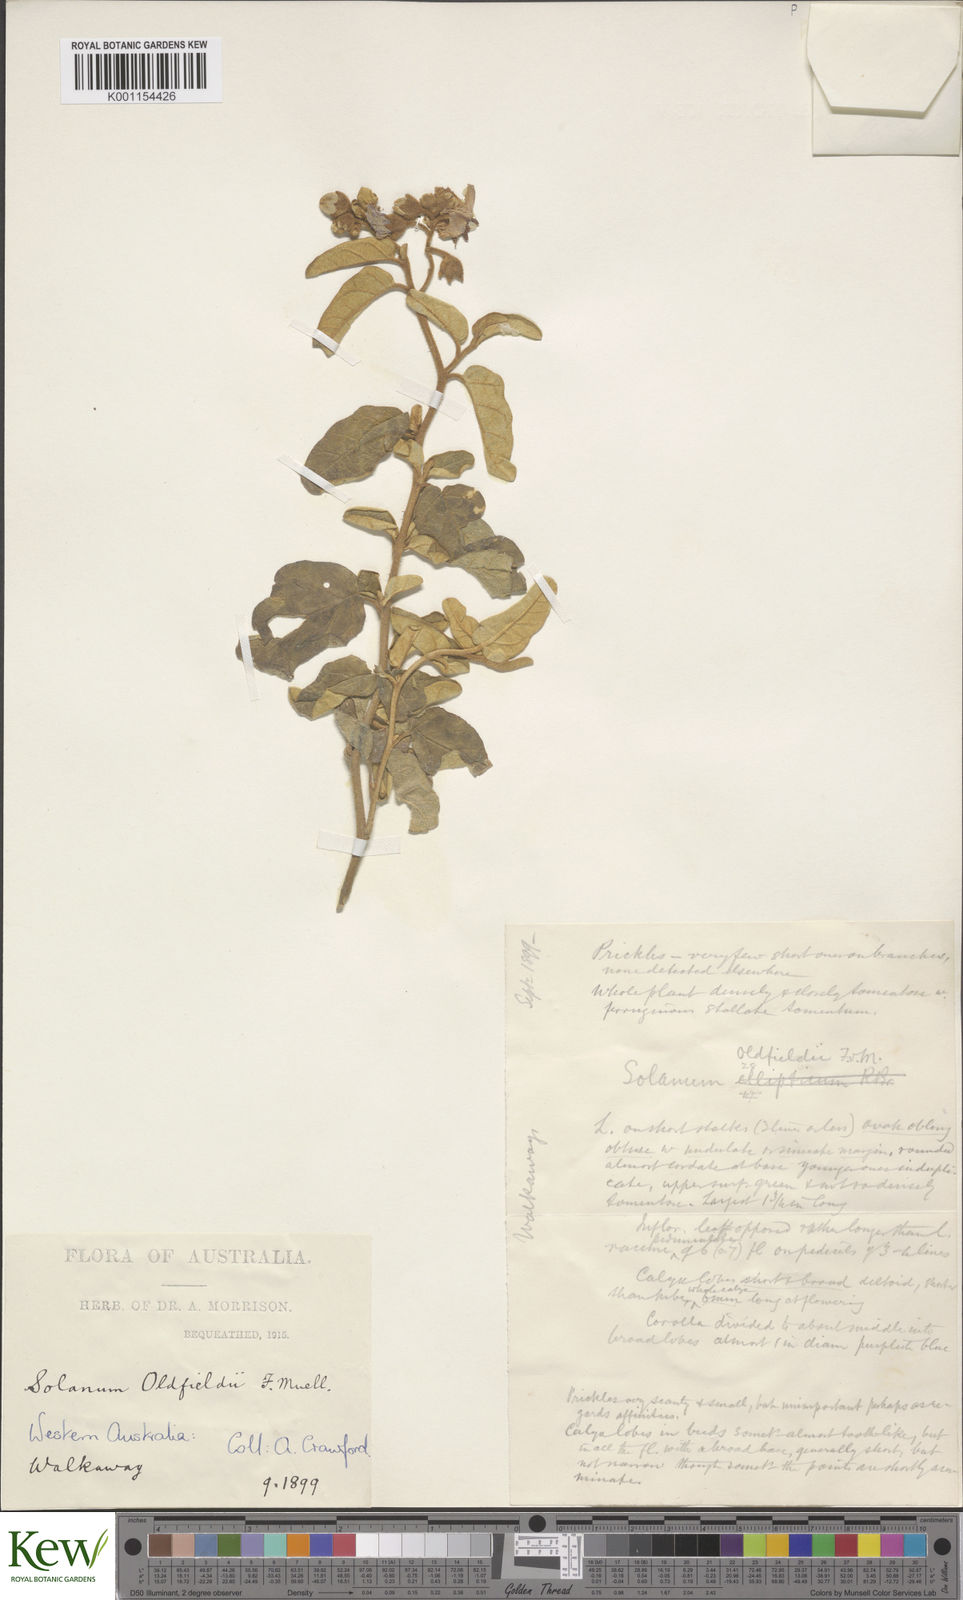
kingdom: Plantae
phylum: Tracheophyta
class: Magnoliopsida
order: Solanales
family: Solanaceae
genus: Solanum
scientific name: Solanum oldfieldii
